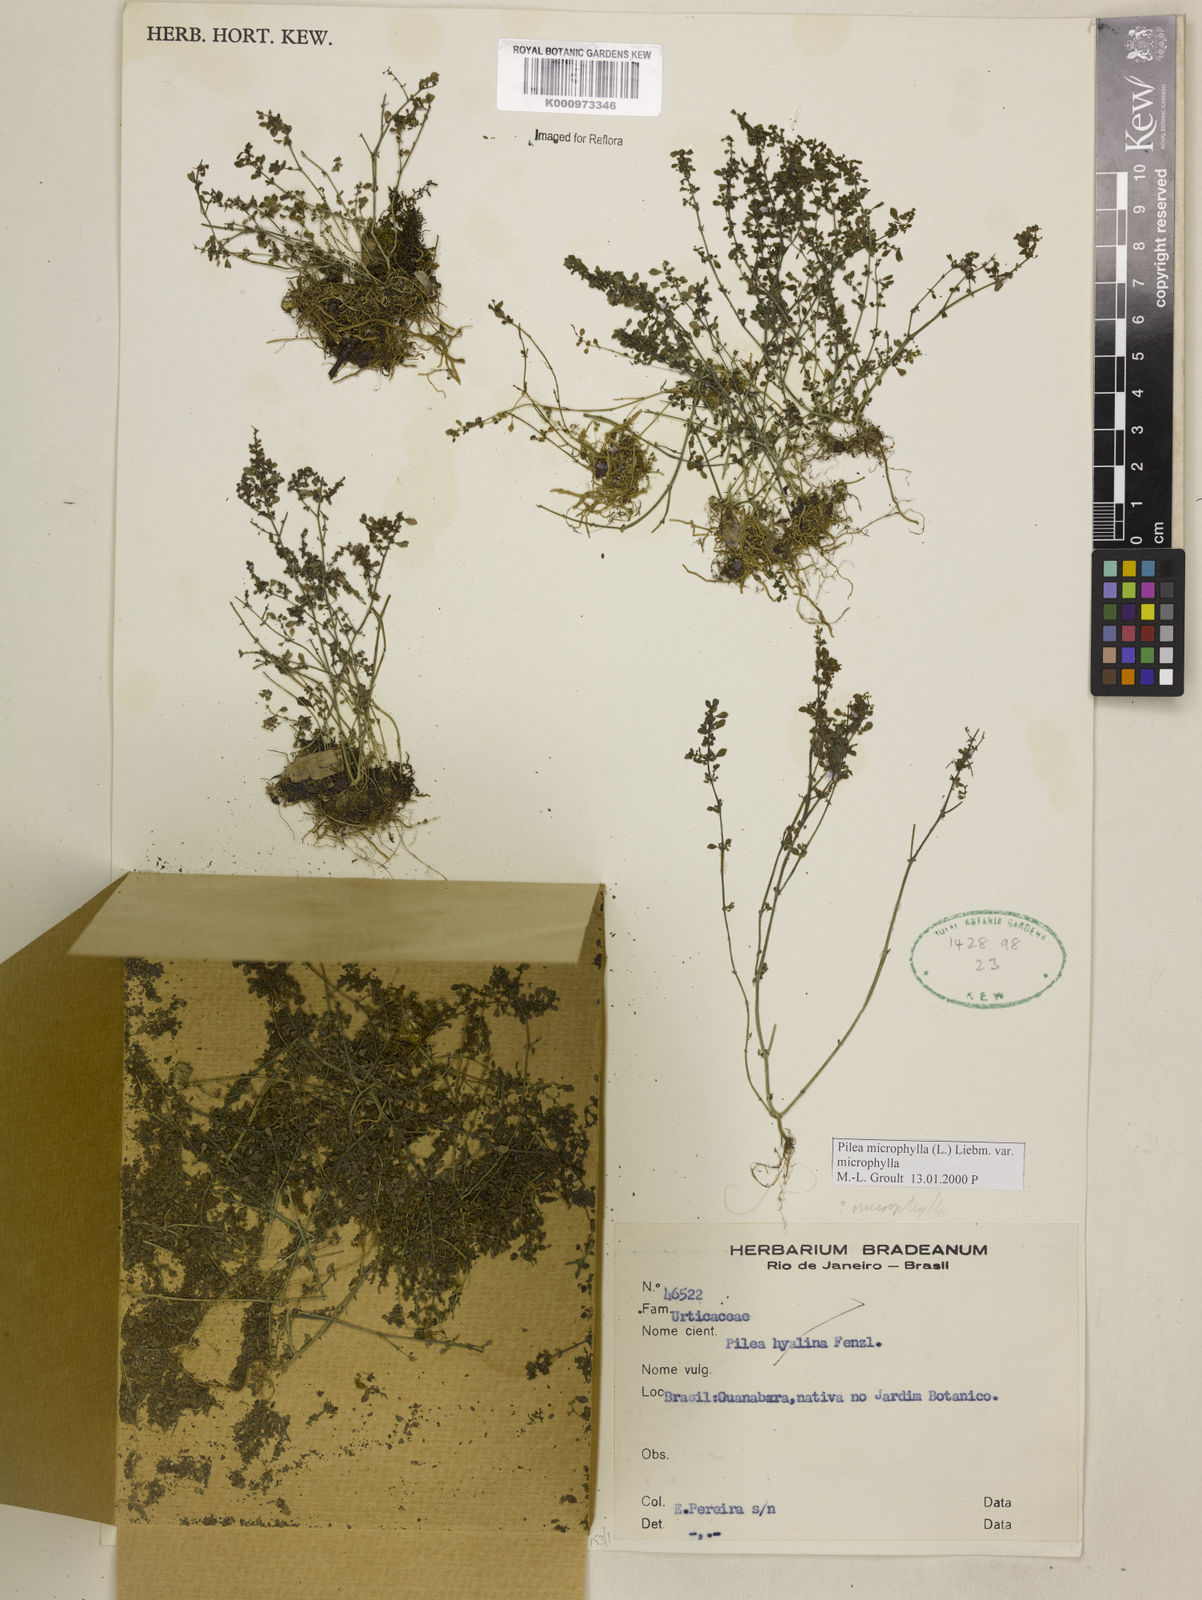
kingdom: Plantae
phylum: Tracheophyta
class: Magnoliopsida
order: Rosales
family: Urticaceae
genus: Pilea
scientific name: Pilea microphylla
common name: Artillery-plant
